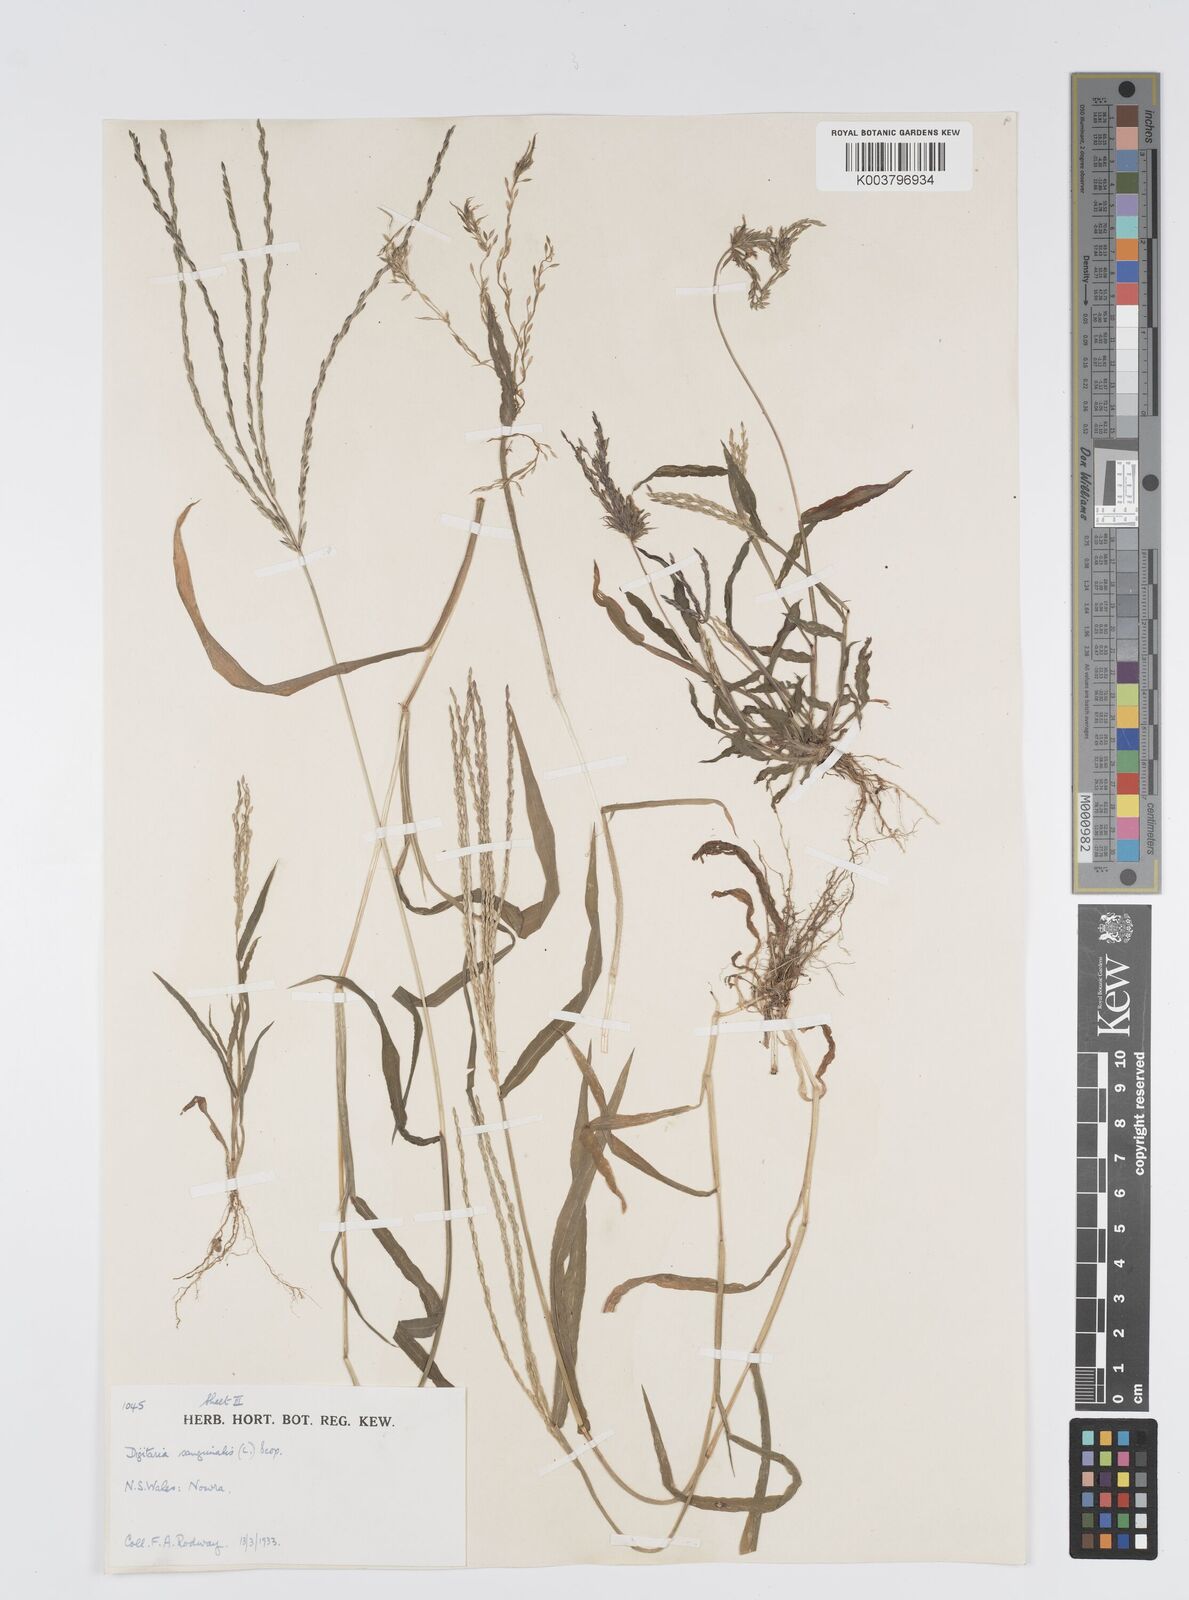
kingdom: Plantae
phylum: Tracheophyta
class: Liliopsida
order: Poales
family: Poaceae
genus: Digitaria
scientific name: Digitaria sanguinalis
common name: Hairy crabgrass
